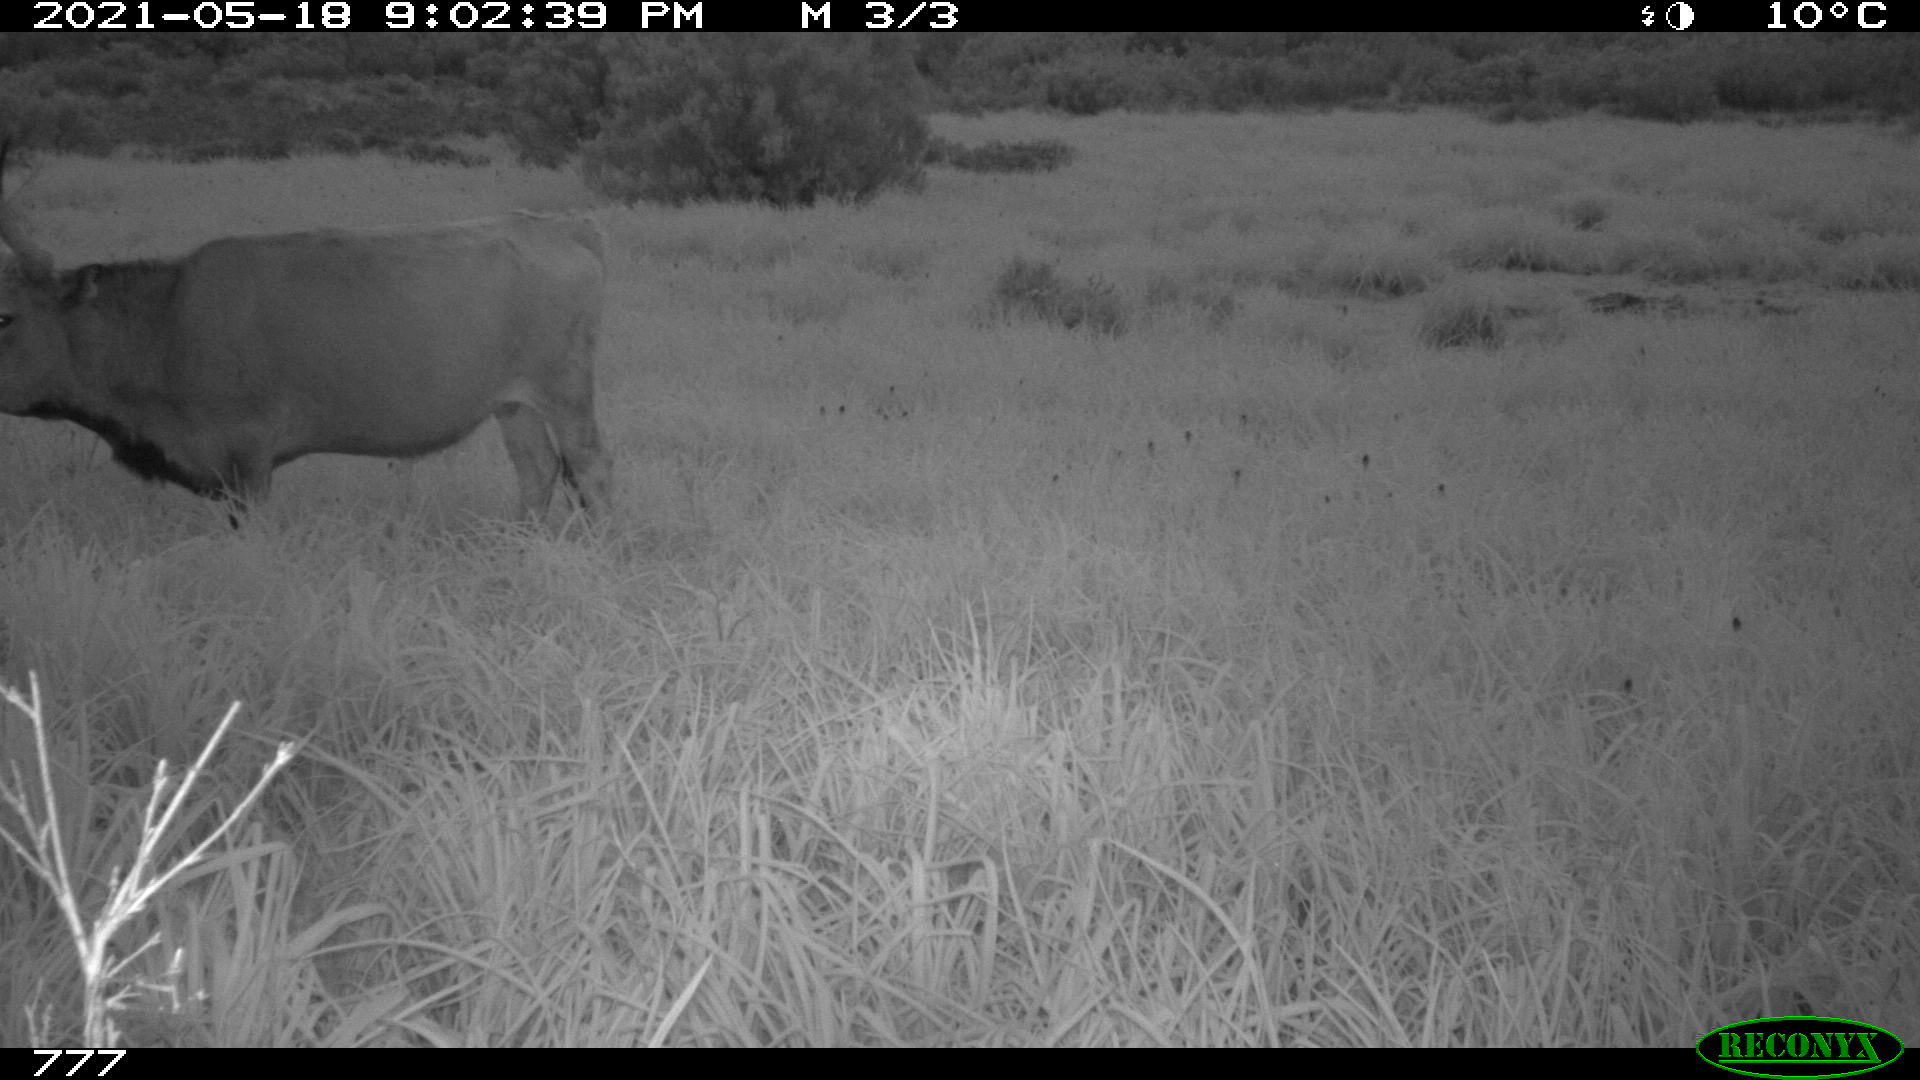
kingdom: Animalia
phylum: Chordata
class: Mammalia
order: Artiodactyla
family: Bovidae
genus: Bos
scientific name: Bos taurus
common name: Domesticated cattle
